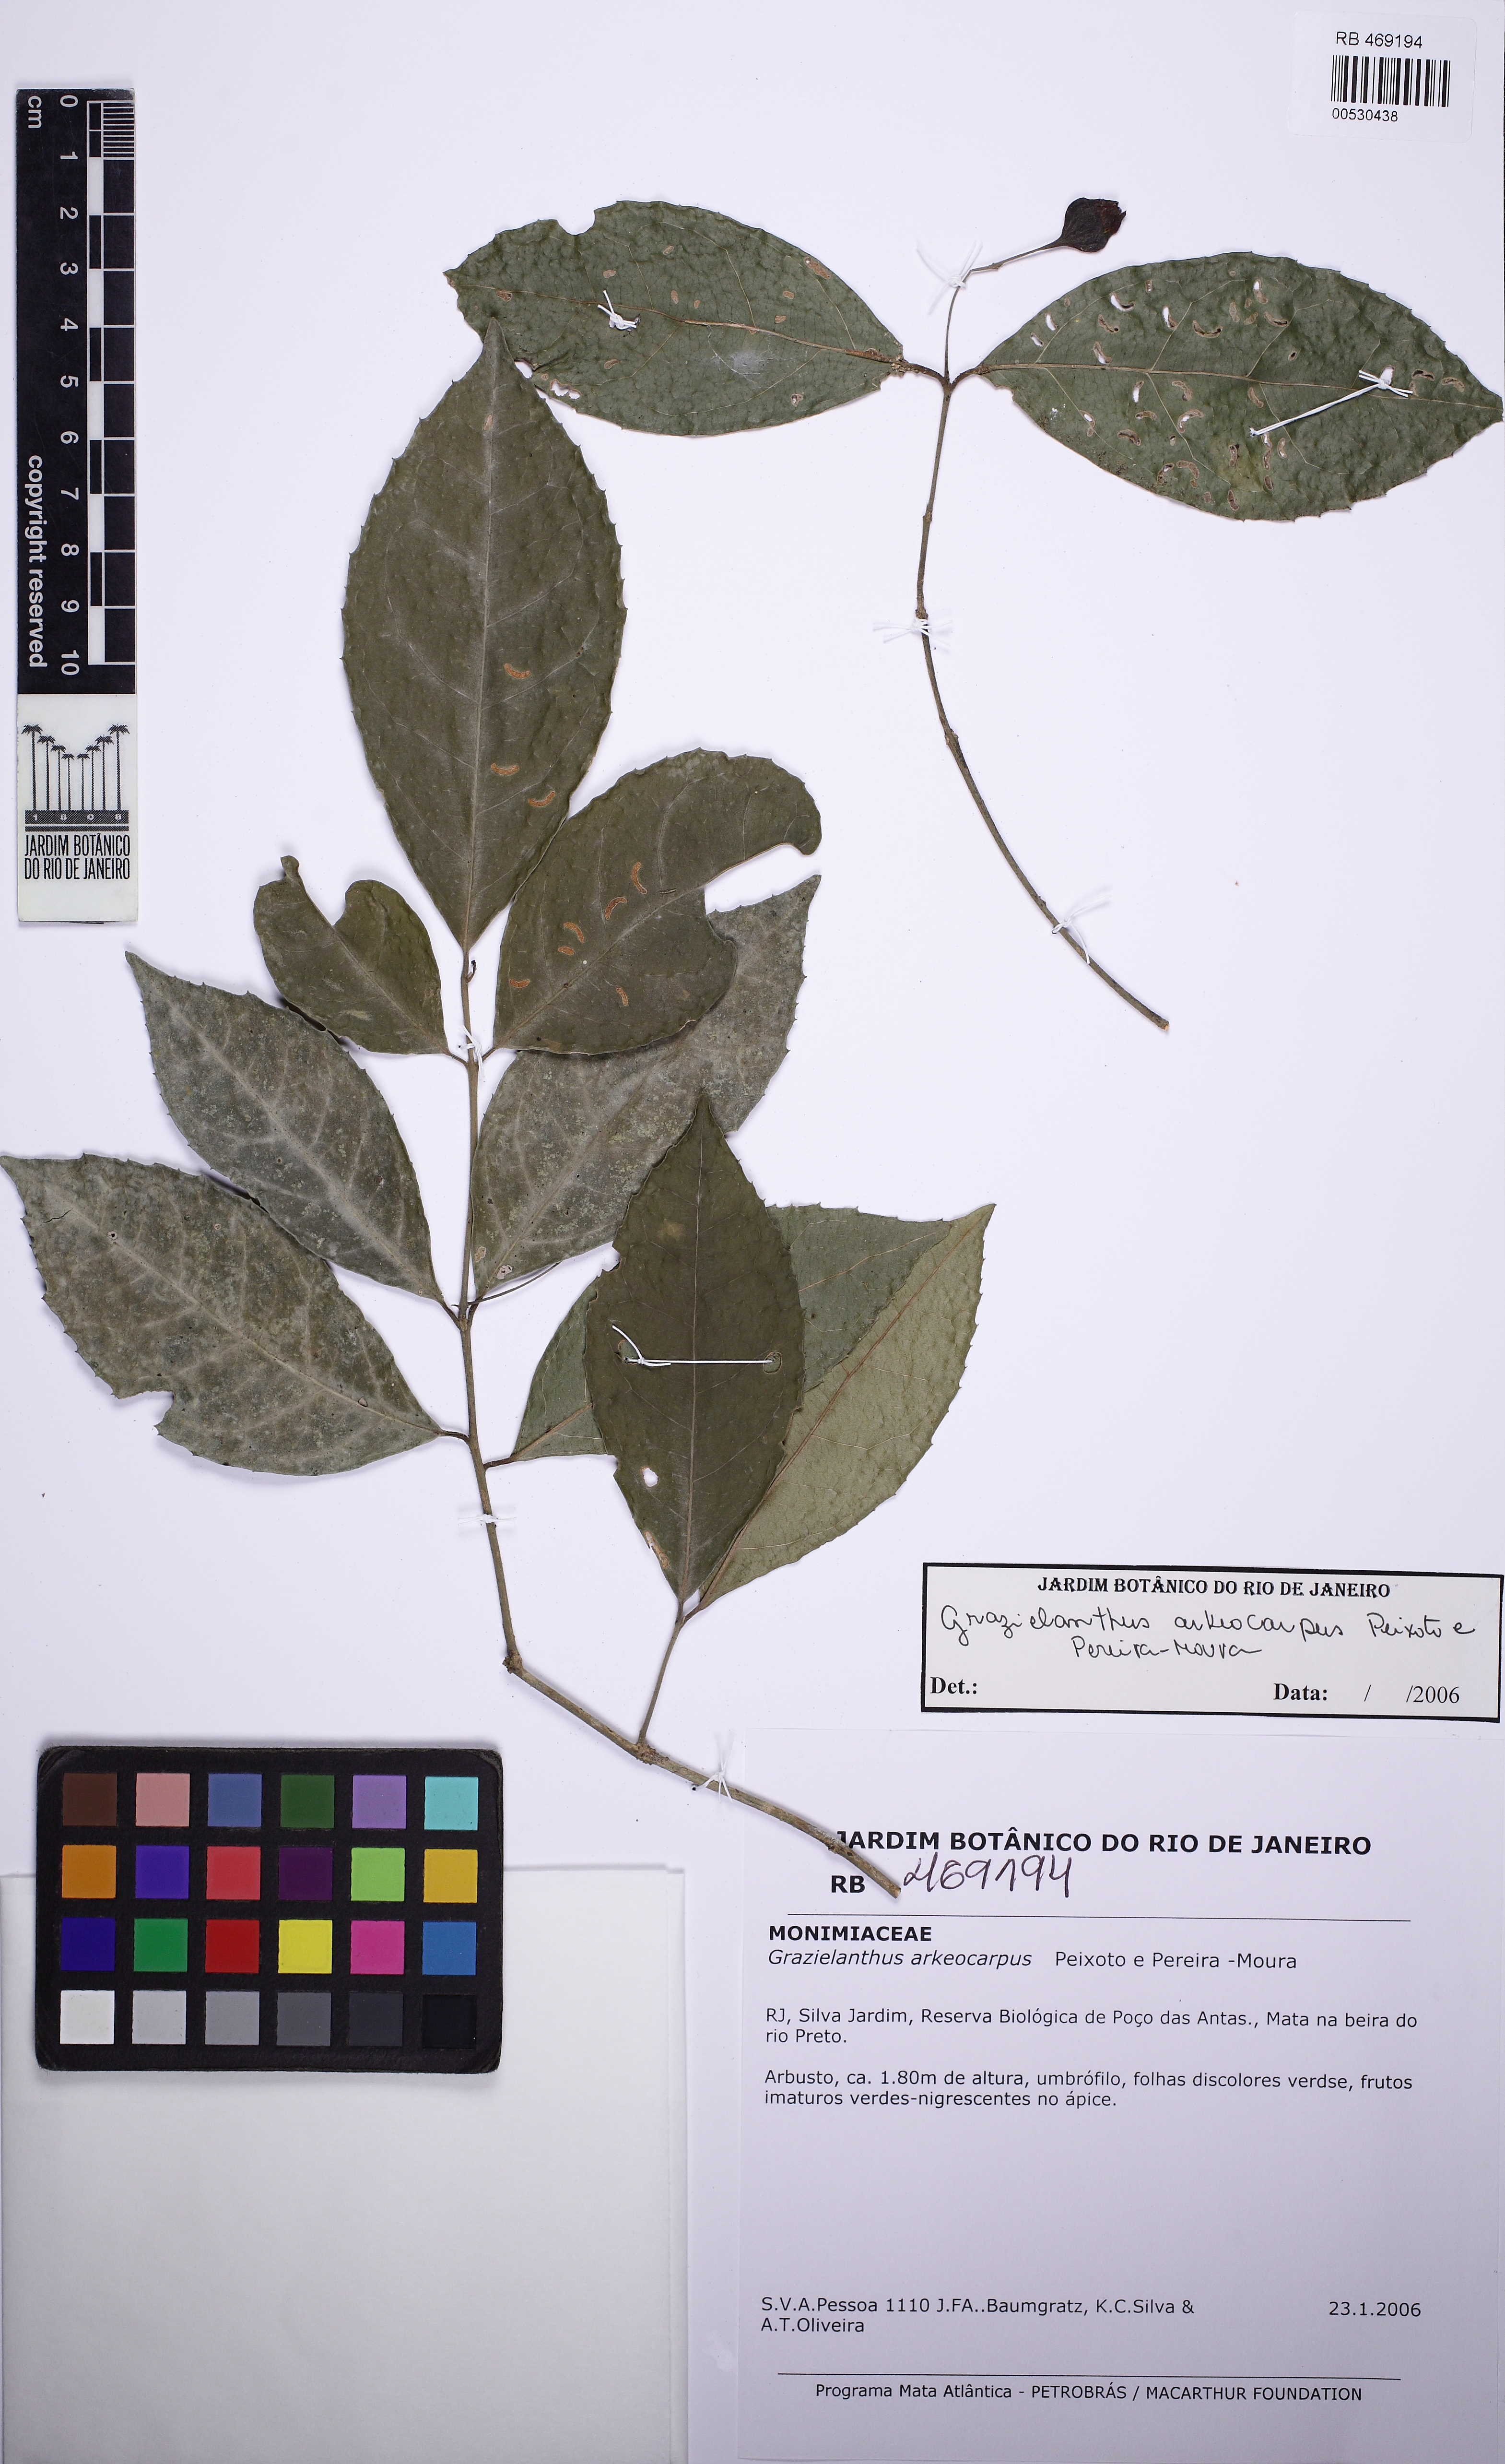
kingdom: Plantae
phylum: Tracheophyta
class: Magnoliopsida
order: Laurales
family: Monimiaceae
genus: Grazielanthus
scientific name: Grazielanthus arkeocarpus
